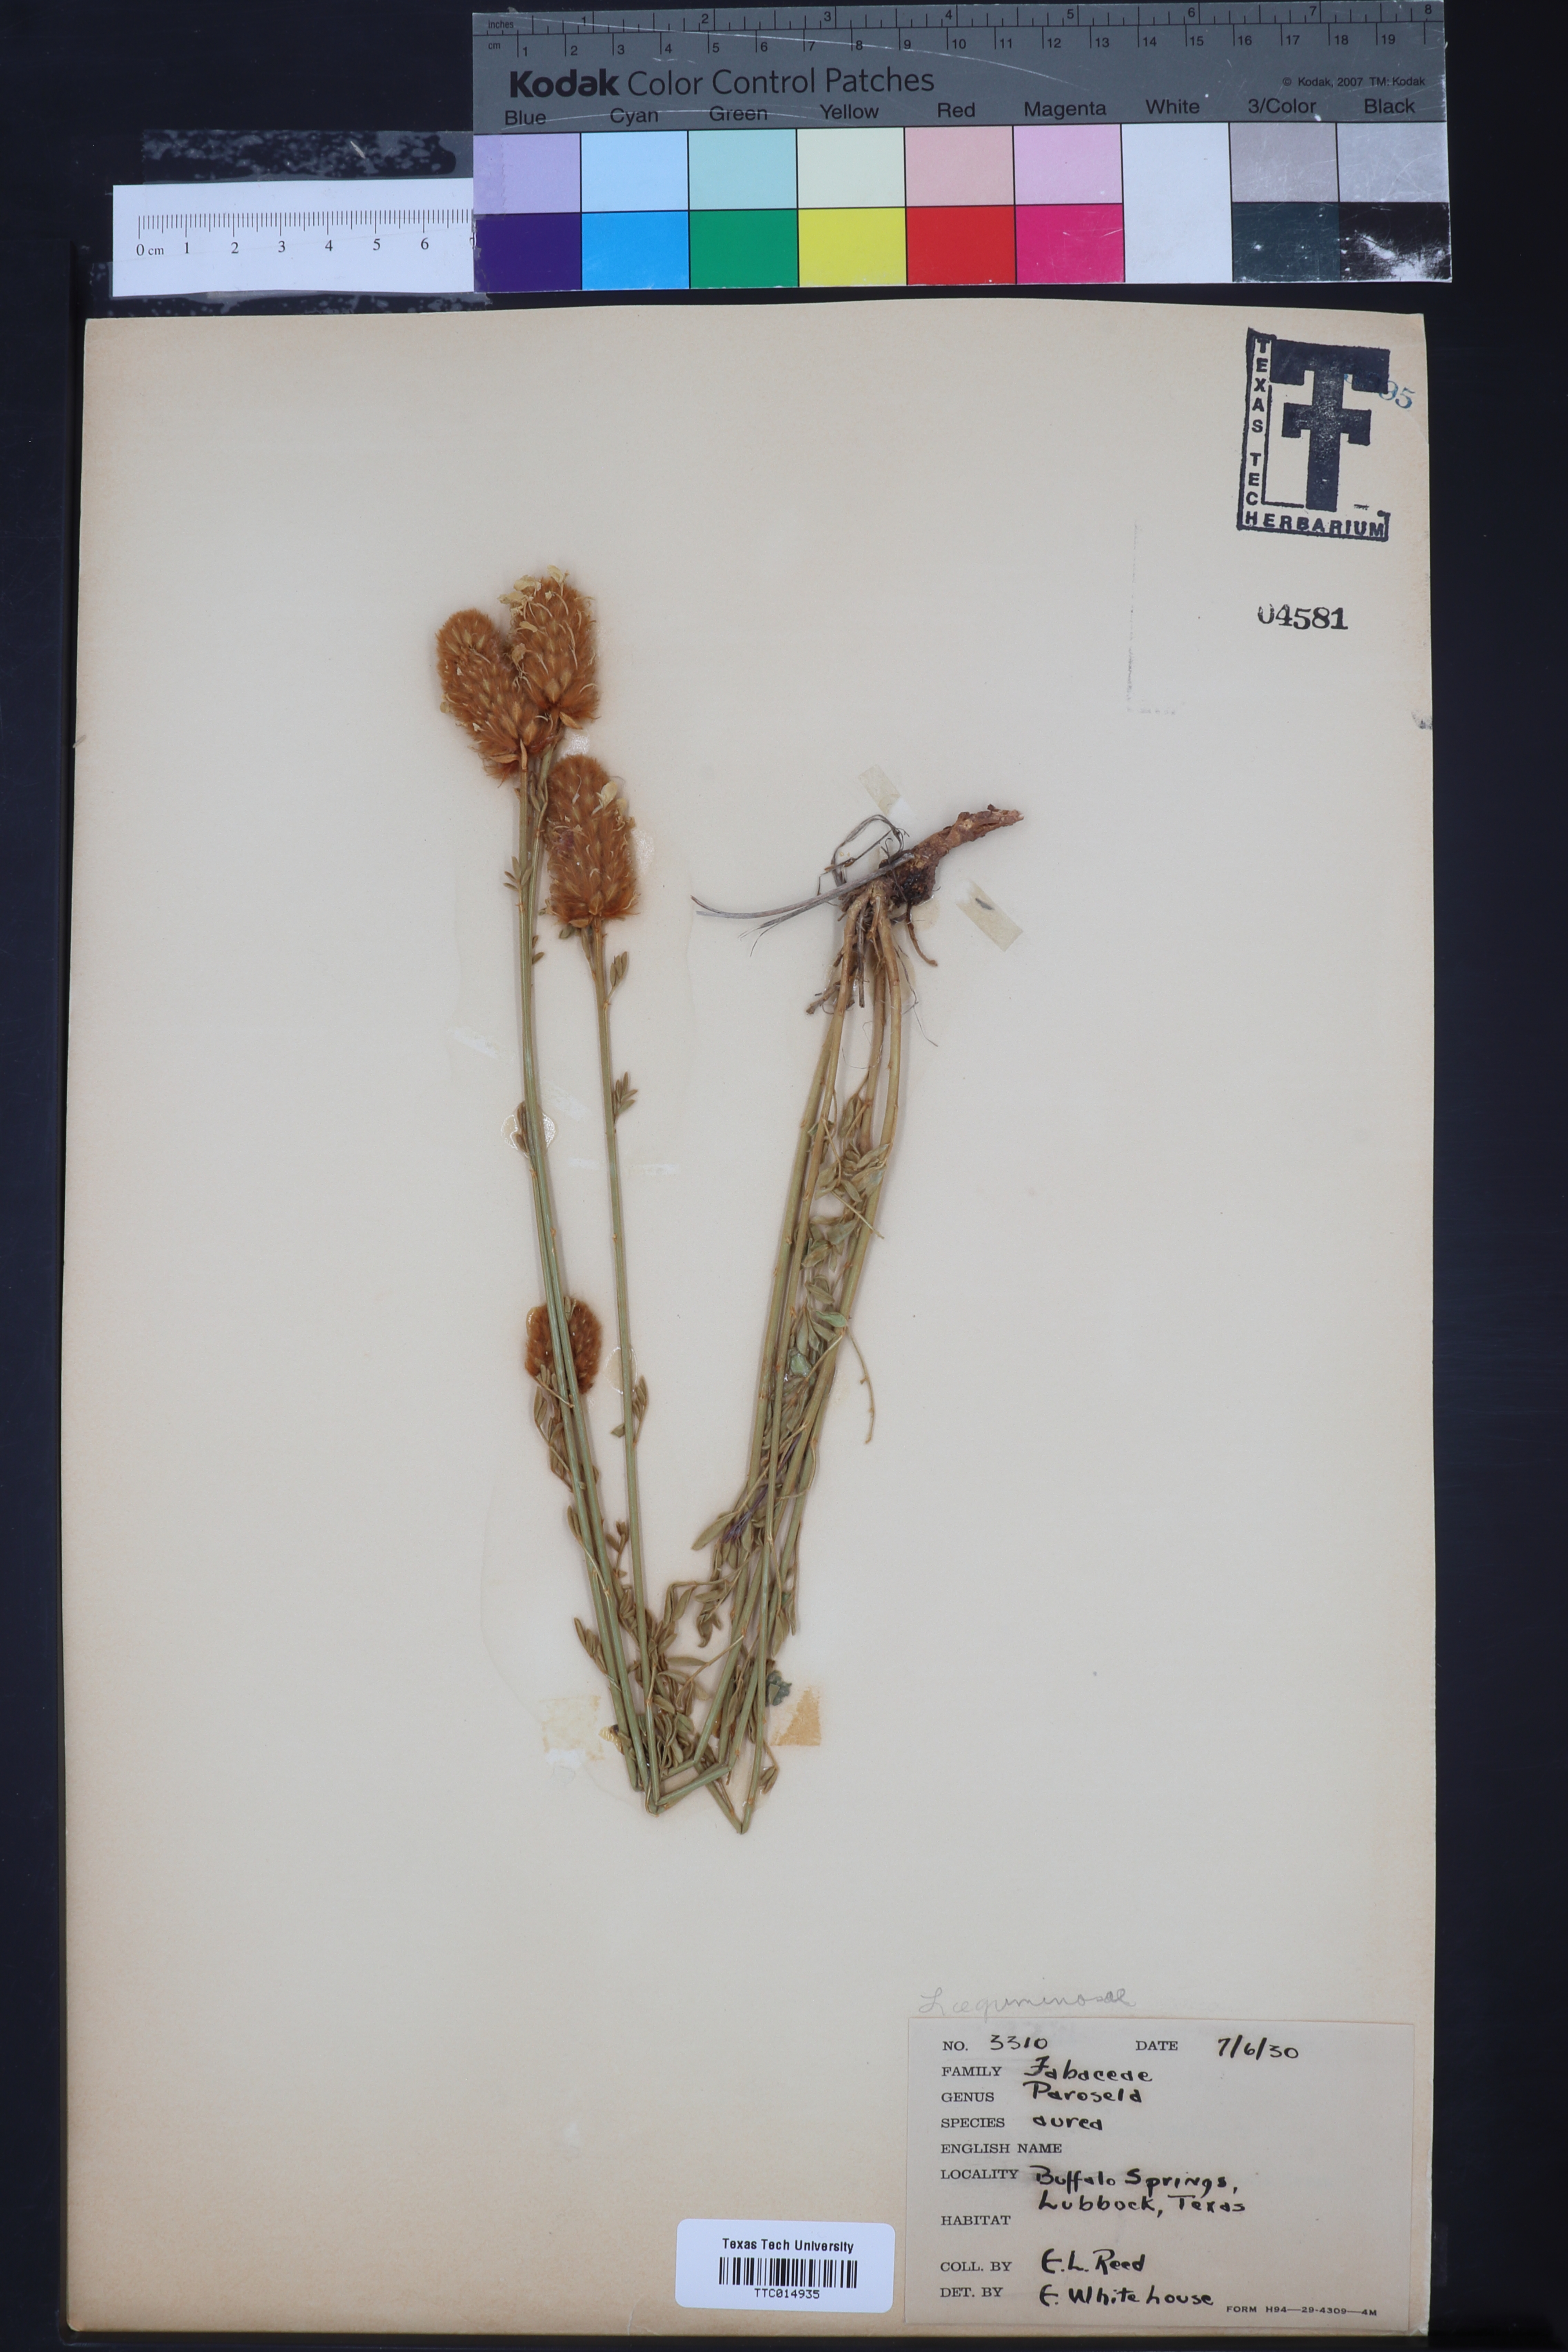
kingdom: Plantae
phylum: Tracheophyta
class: Magnoliopsida
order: Fabales
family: Fabaceae
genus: Dalea
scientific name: Dalea aurea
